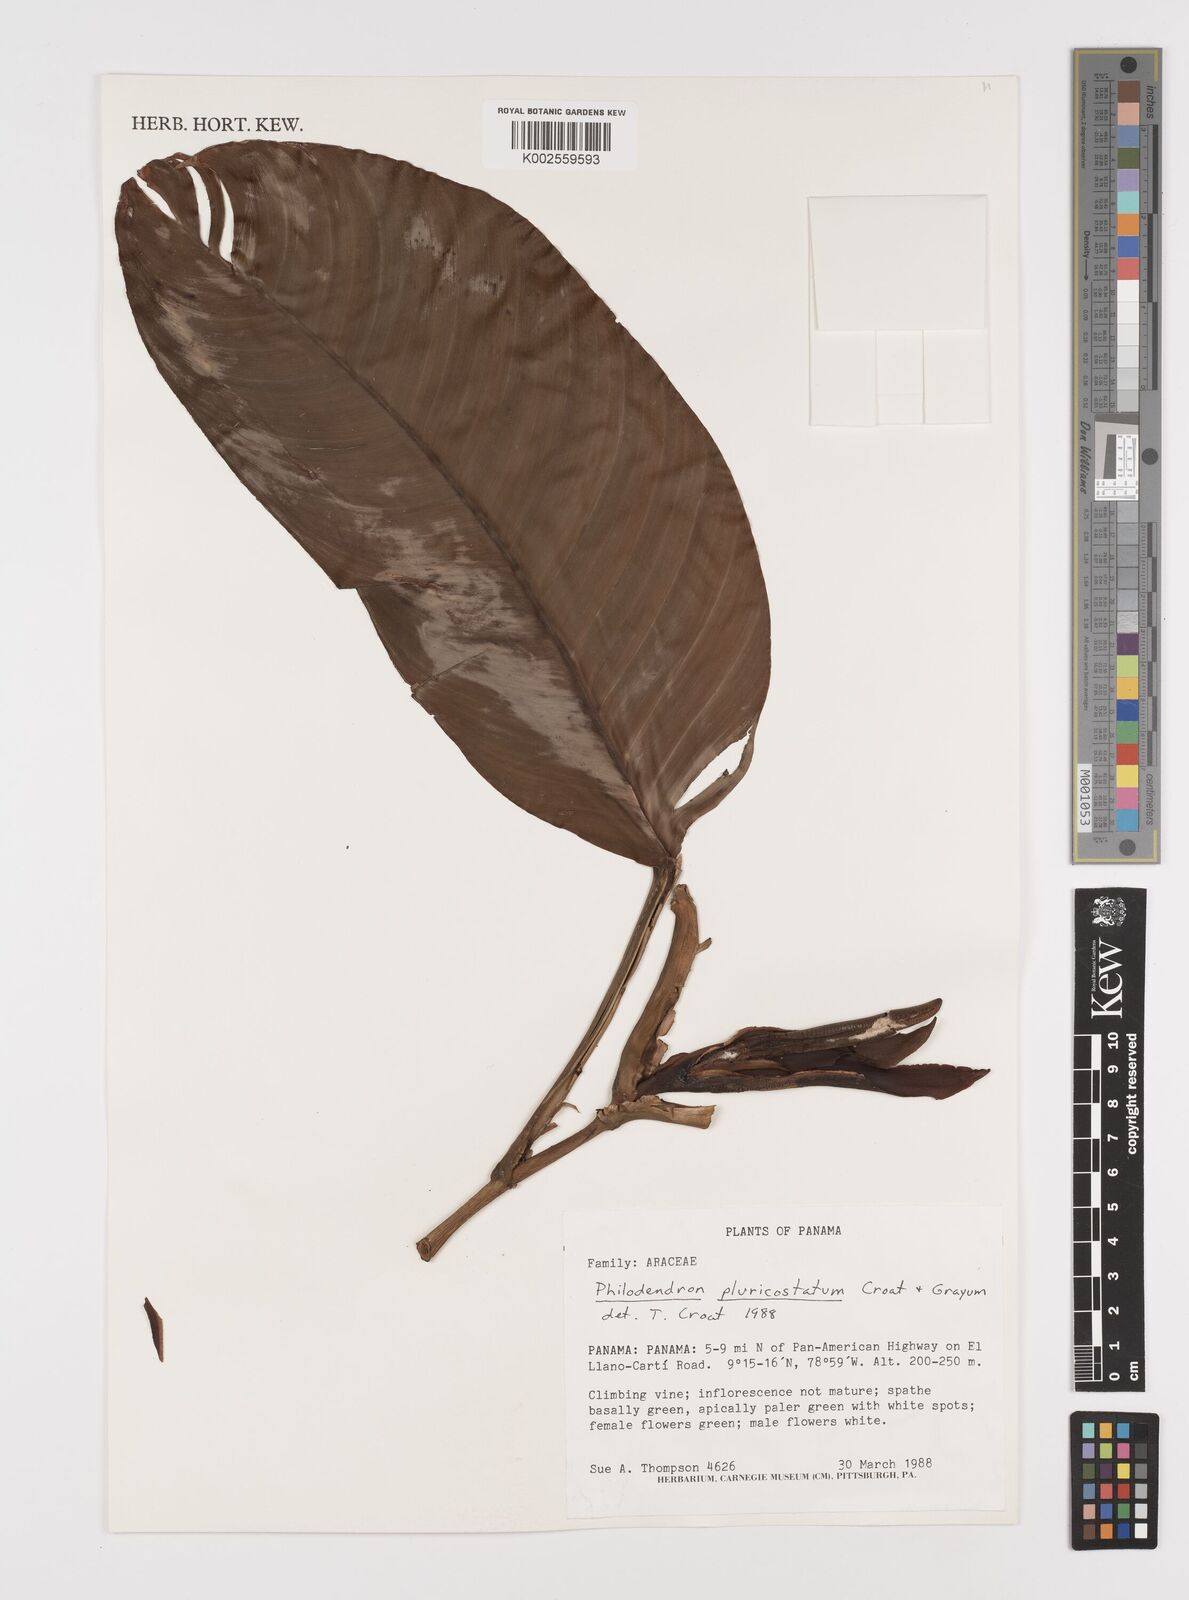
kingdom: Plantae
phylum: Tracheophyta
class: Liliopsida
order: Alismatales
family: Araceae
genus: Philodendron
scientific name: Philodendron
